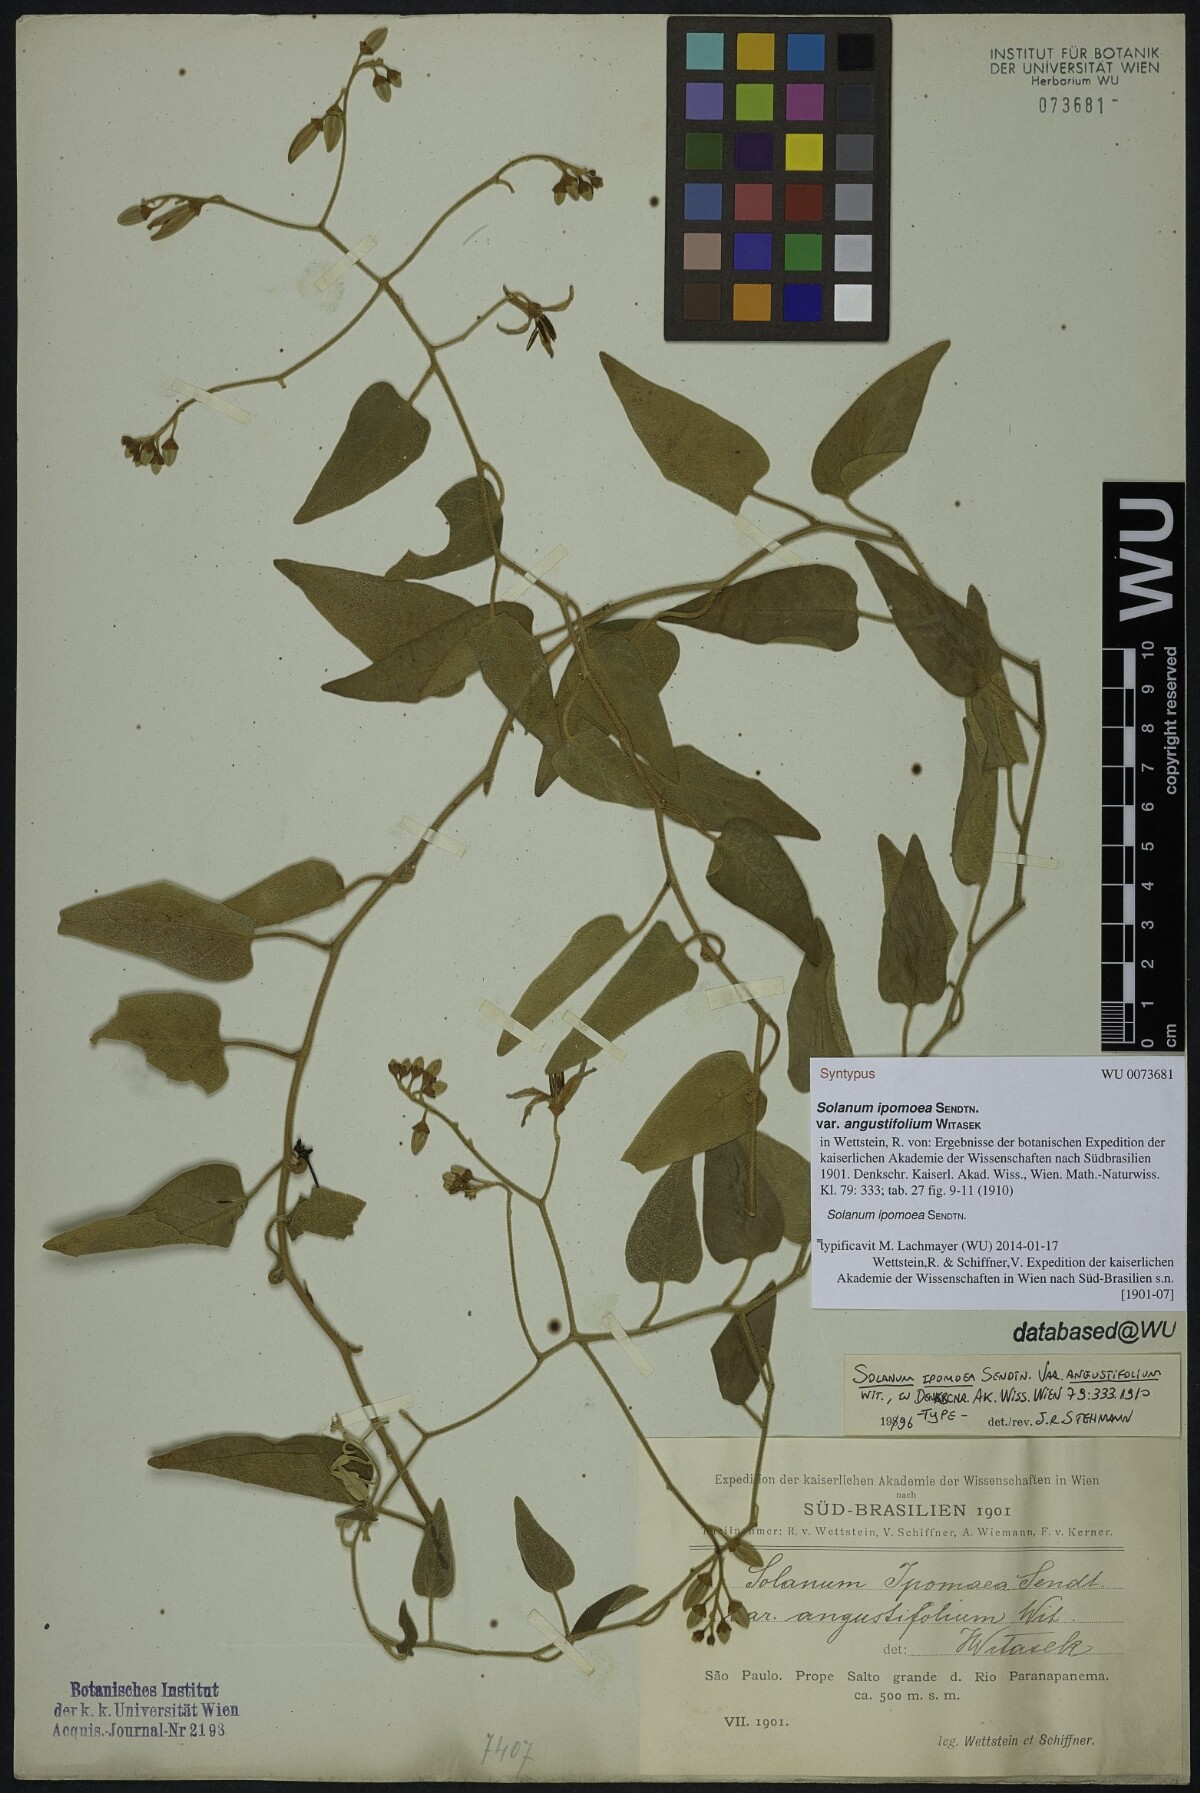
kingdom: Plantae
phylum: Tracheophyta
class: Magnoliopsida
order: Solanales
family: Solanaceae
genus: Solanum
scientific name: Solanum uncinellum
